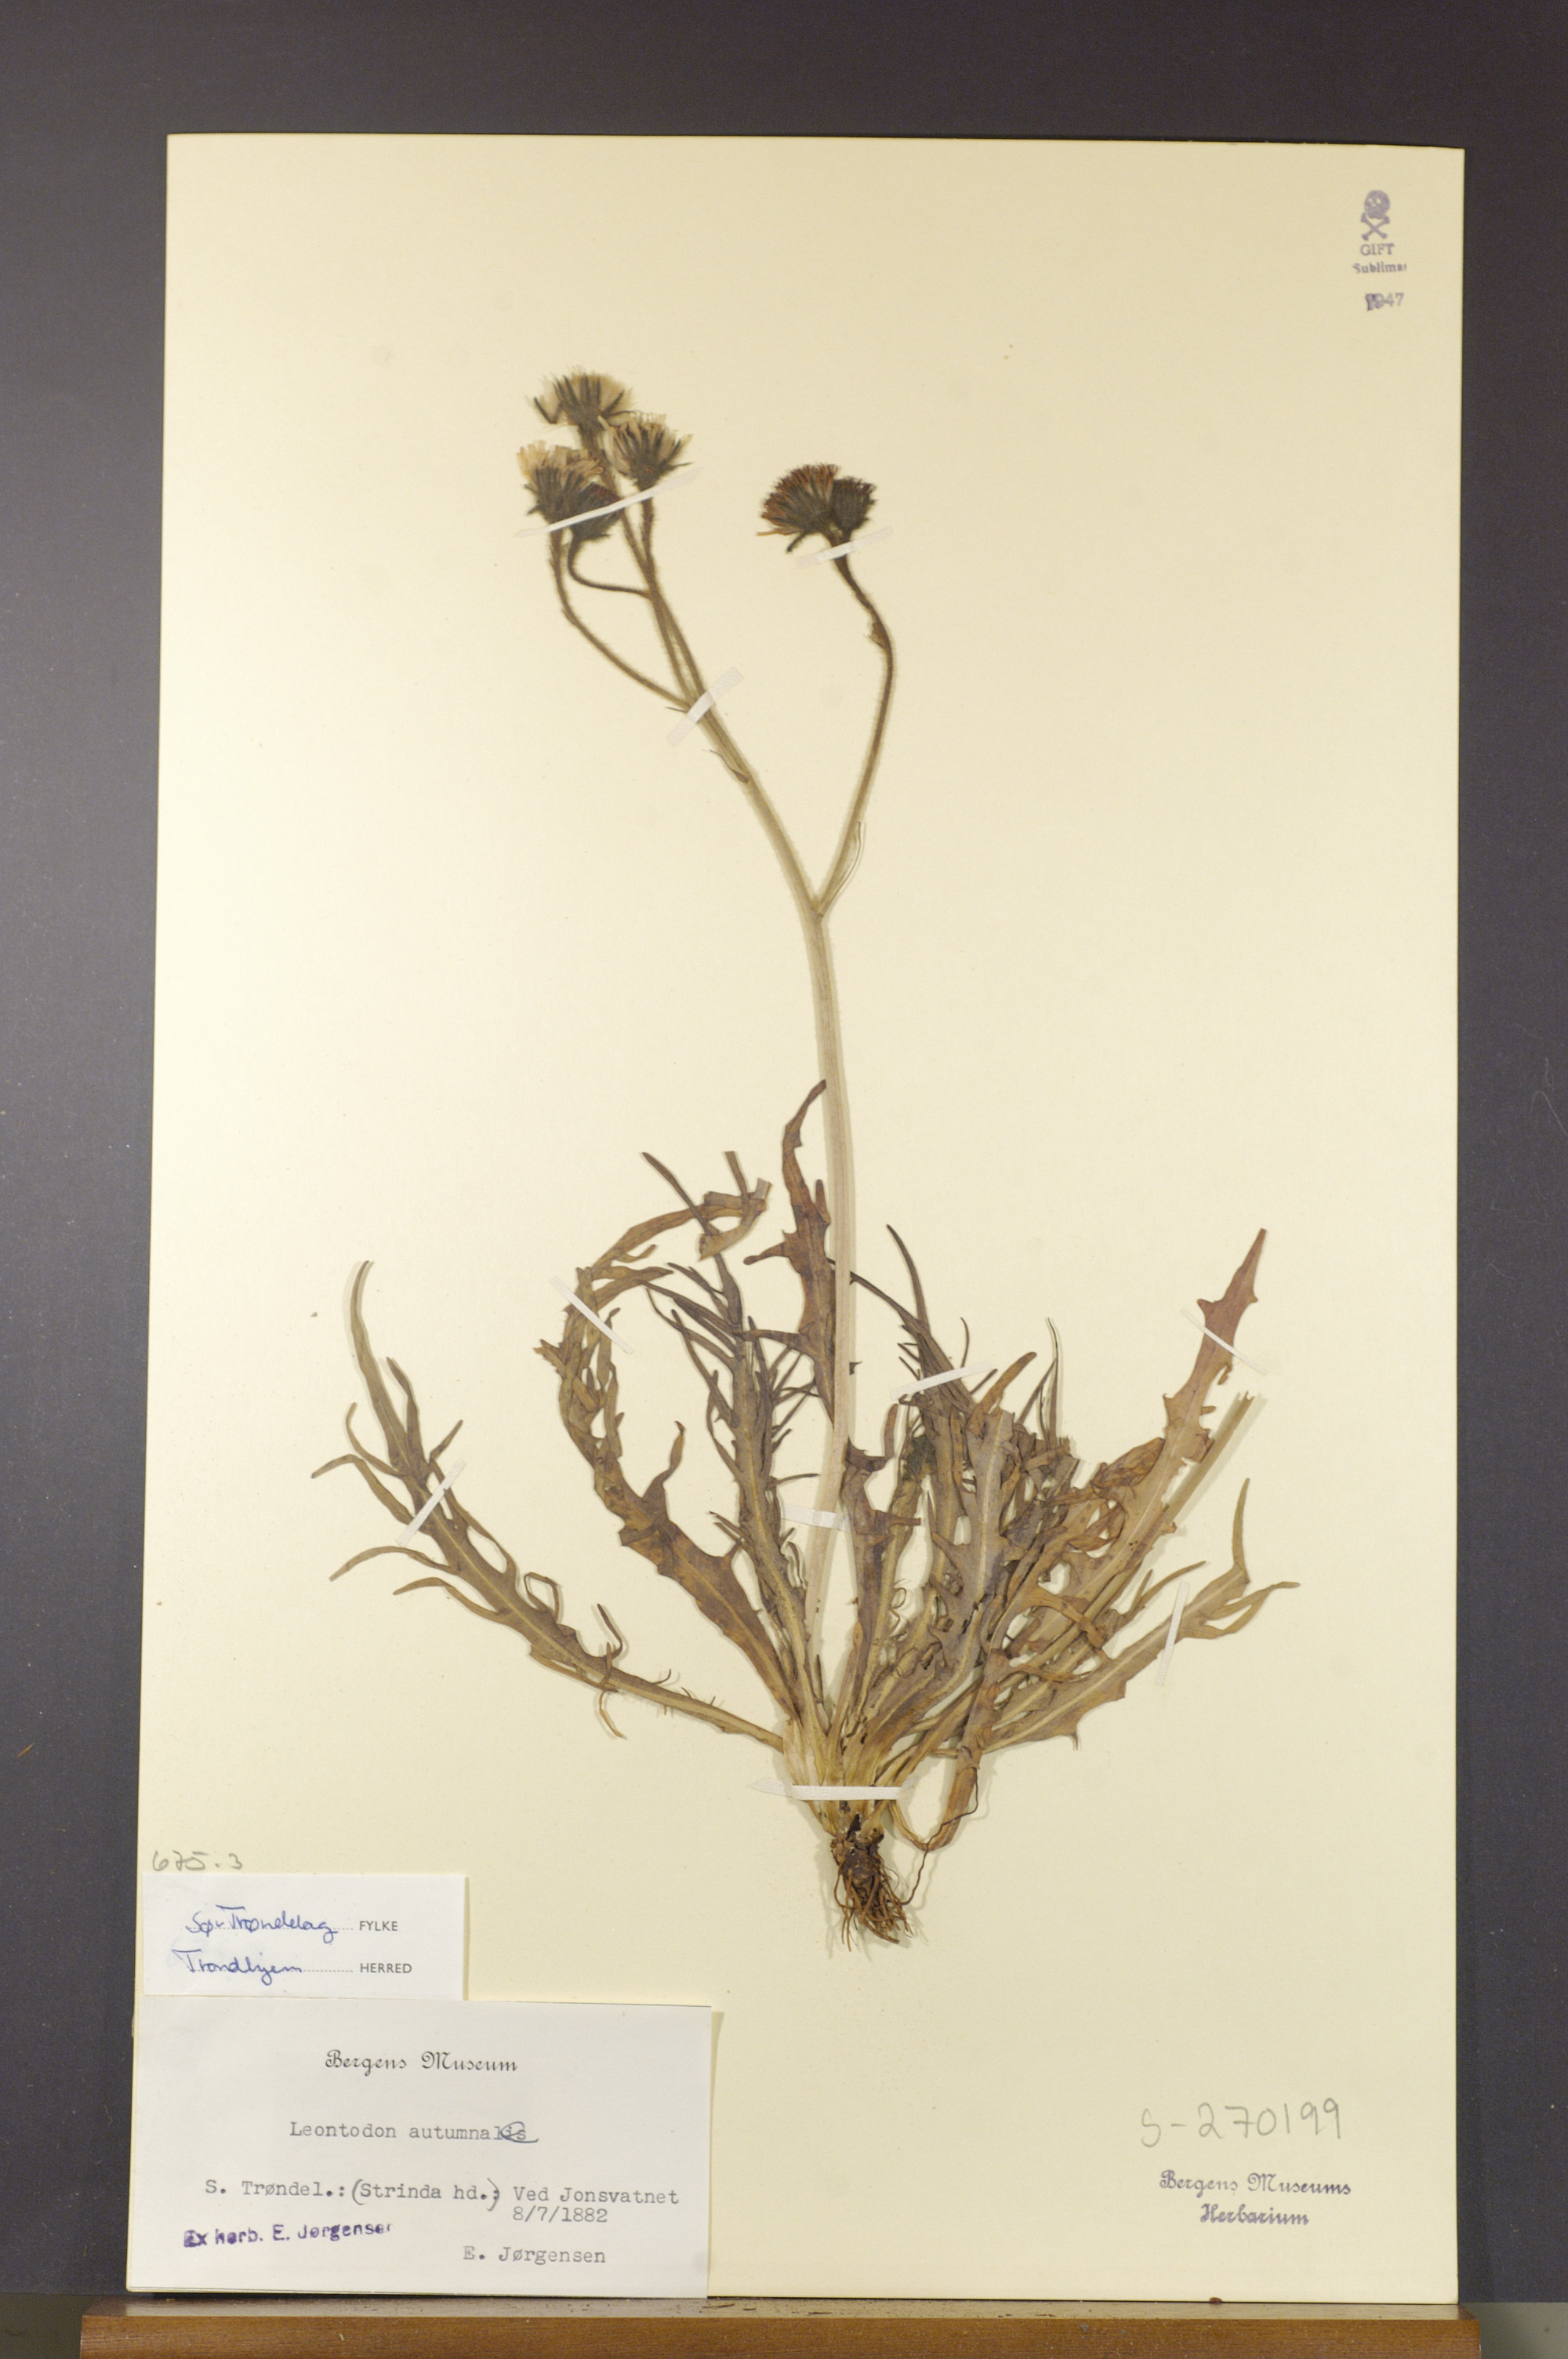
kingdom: Plantae
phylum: Tracheophyta
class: Magnoliopsida
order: Asterales
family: Asteraceae
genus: Scorzoneroides
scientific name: Scorzoneroides autumnalis
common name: Autumn hawkbit
